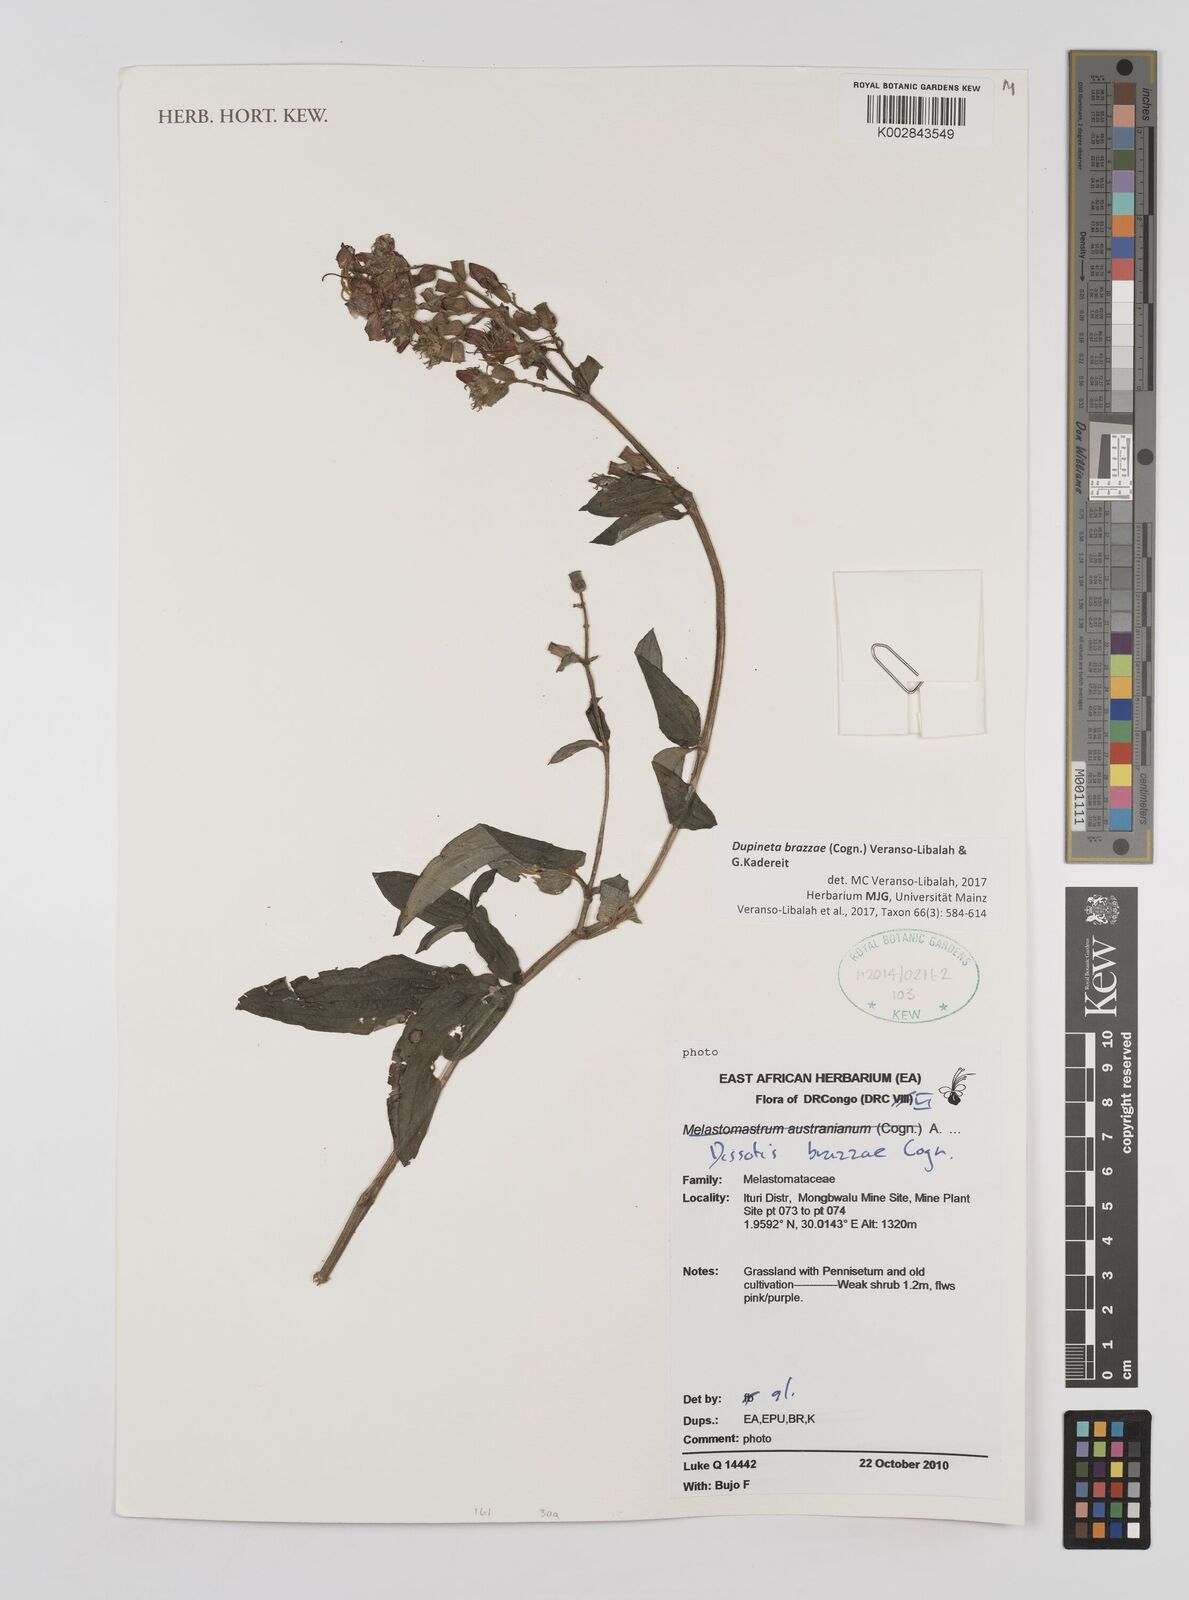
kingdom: Plantae
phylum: Tracheophyta
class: Magnoliopsida
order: Myrtales
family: Melastomataceae
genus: Dupineta
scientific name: Dupineta brazzae
